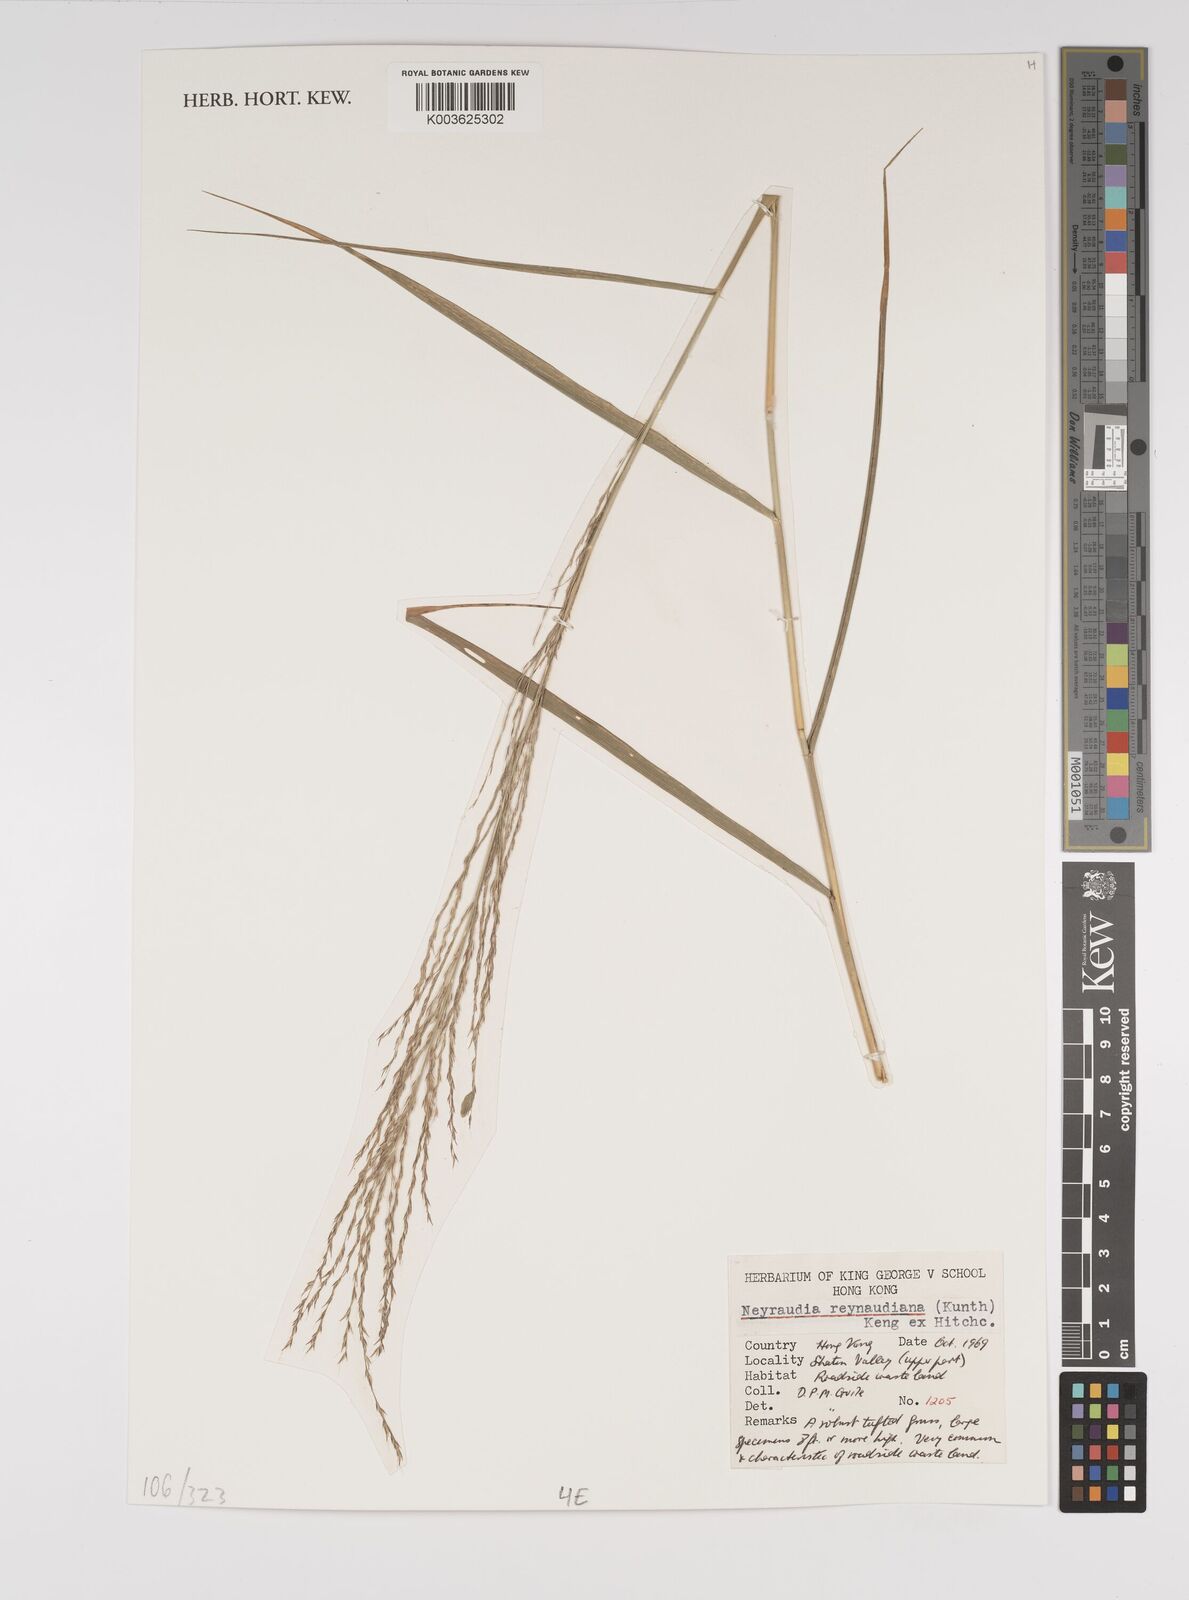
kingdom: Plantae
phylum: Tracheophyta
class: Liliopsida
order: Poales
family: Poaceae
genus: Neyraudia
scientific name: Neyraudia reynaudiana
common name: Silkreed
